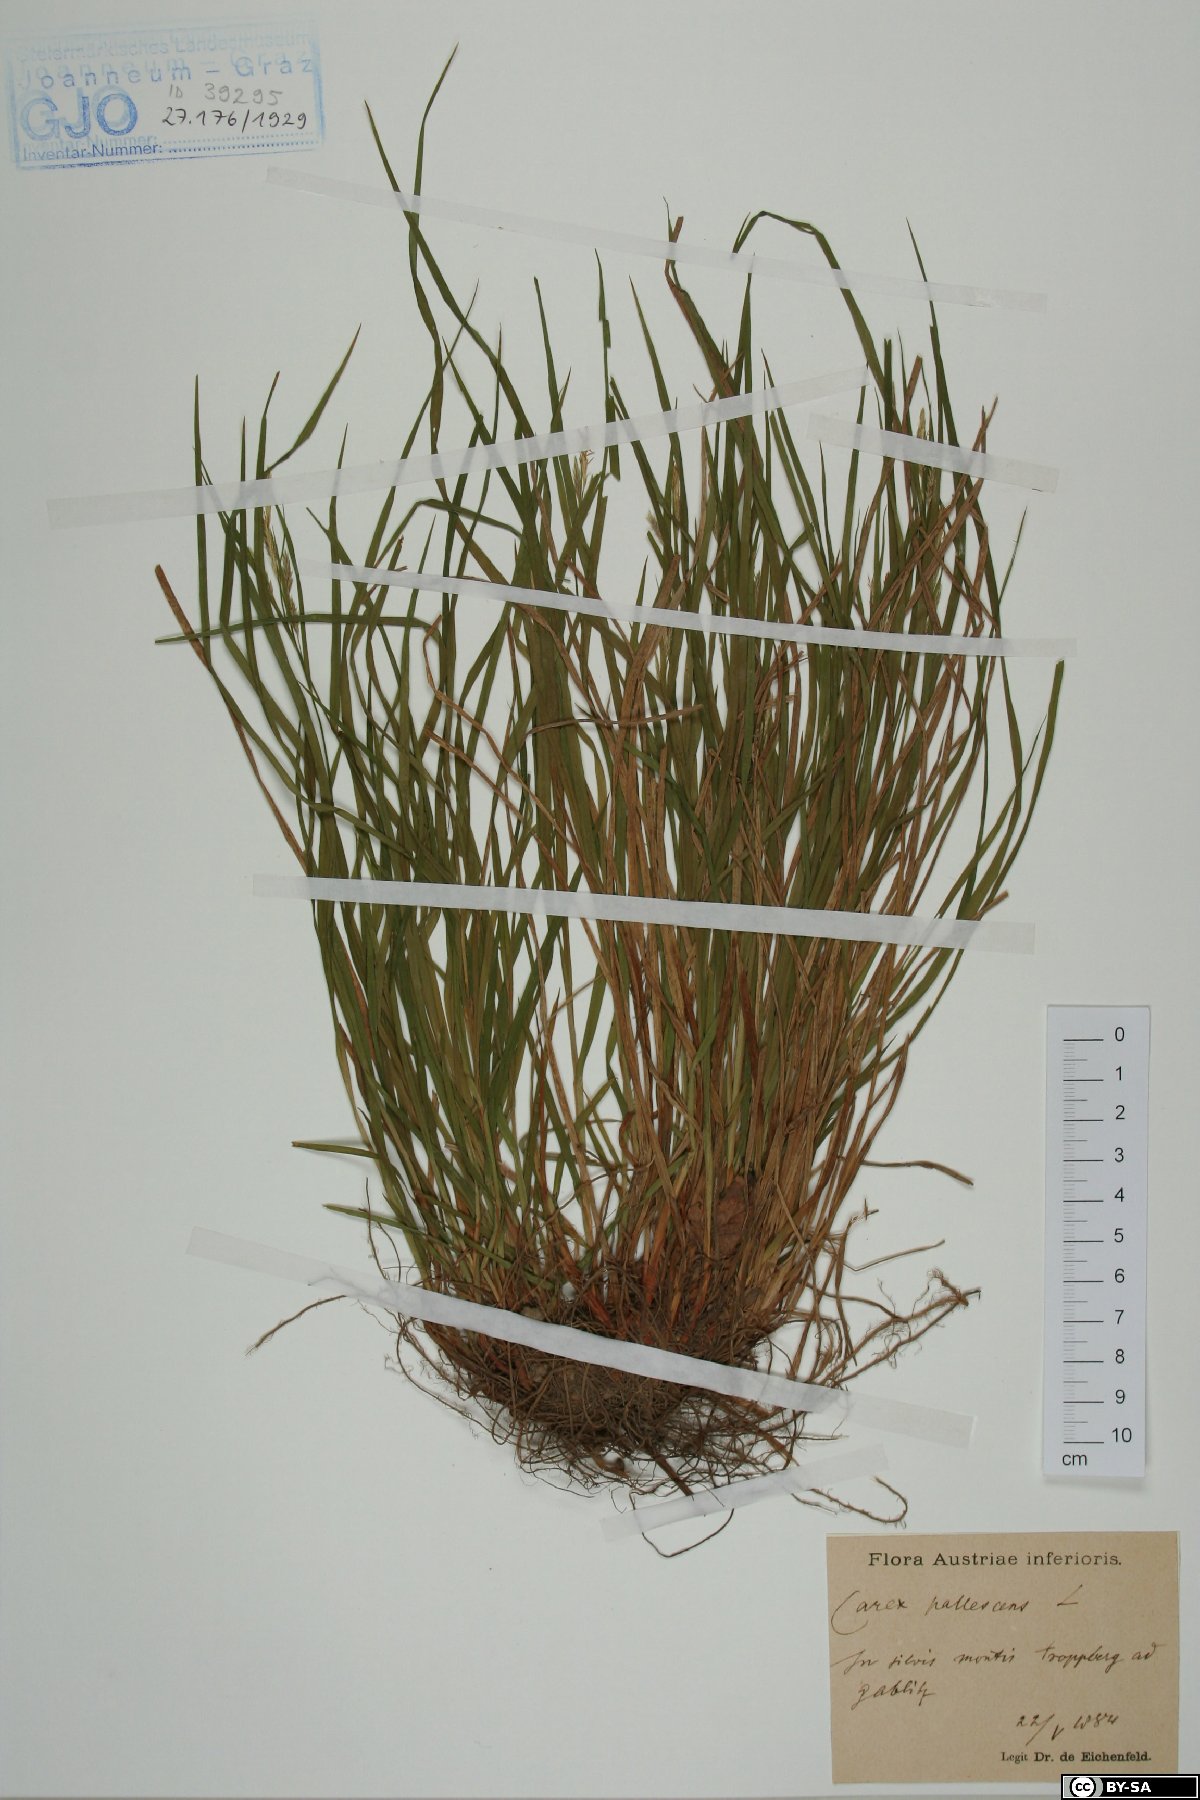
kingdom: Plantae
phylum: Tracheophyta
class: Liliopsida
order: Poales
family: Cyperaceae
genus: Carex
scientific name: Carex pallescens
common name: Pale sedge
